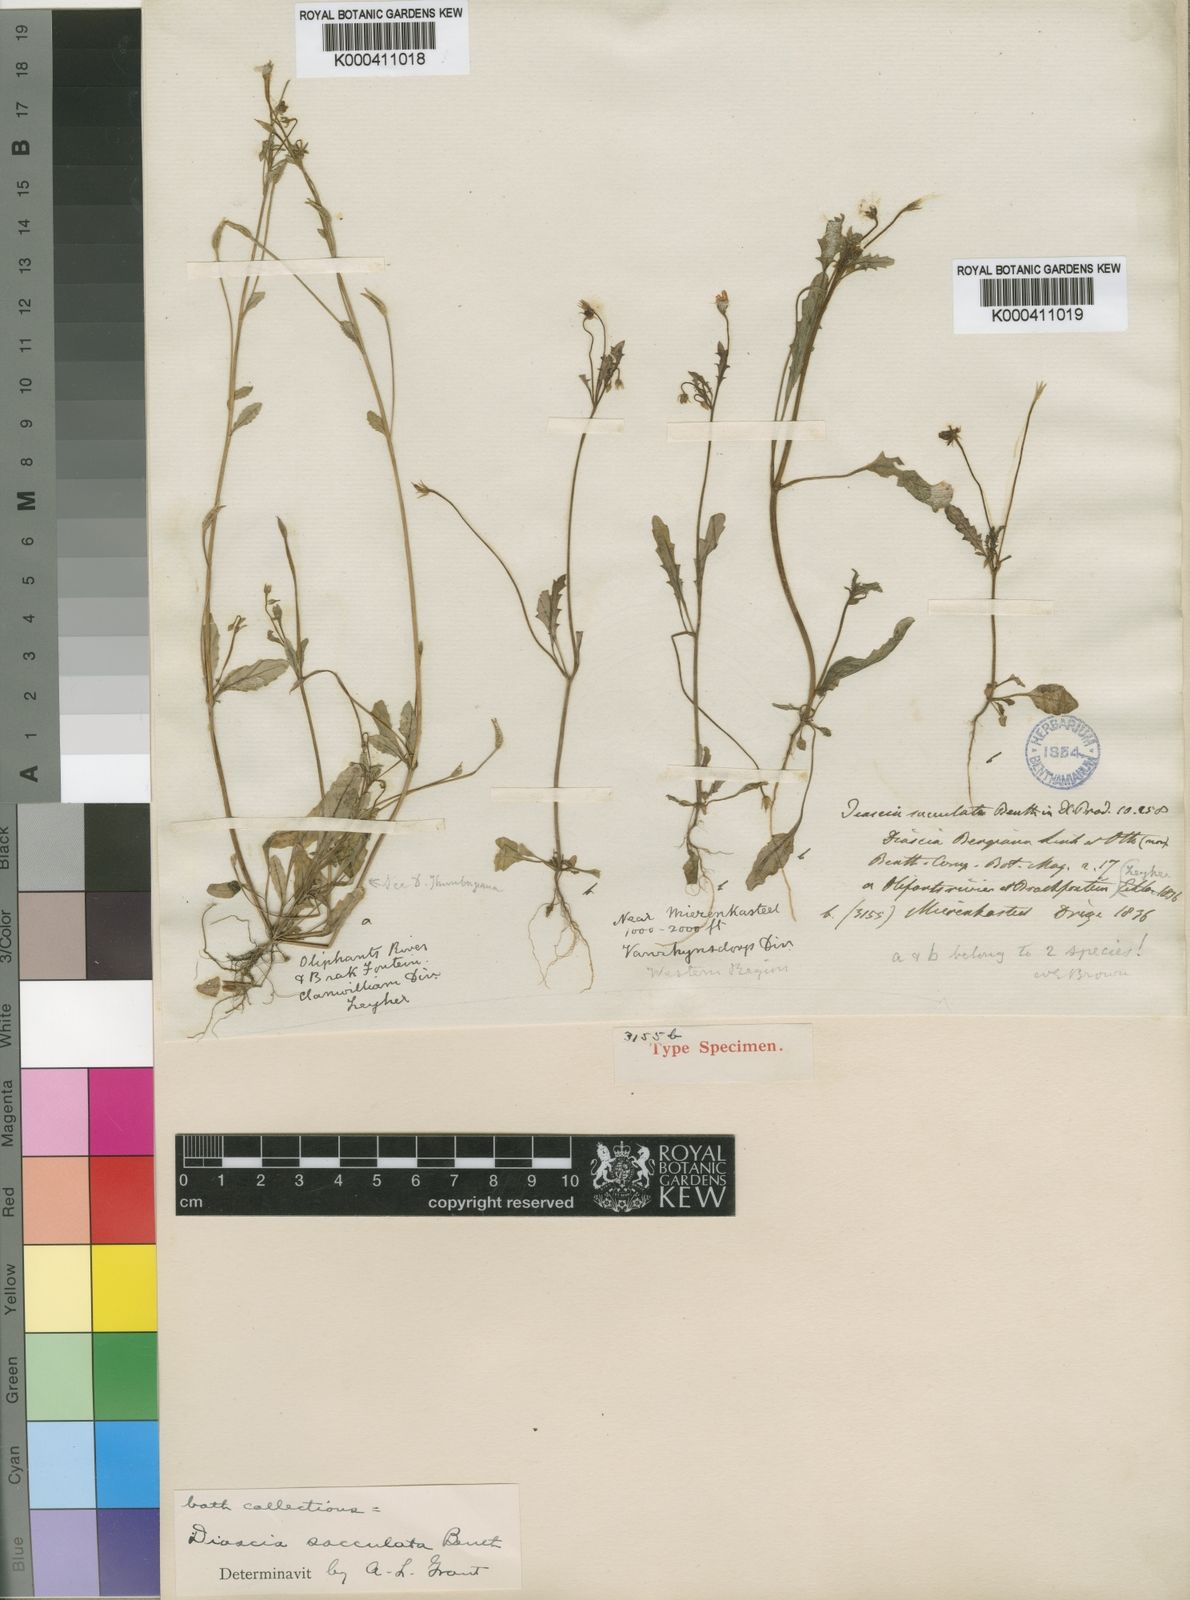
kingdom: Plantae
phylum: Tracheophyta
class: Magnoliopsida
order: Lamiales
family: Scrophulariaceae
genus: Diascia
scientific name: Diascia sacculata
